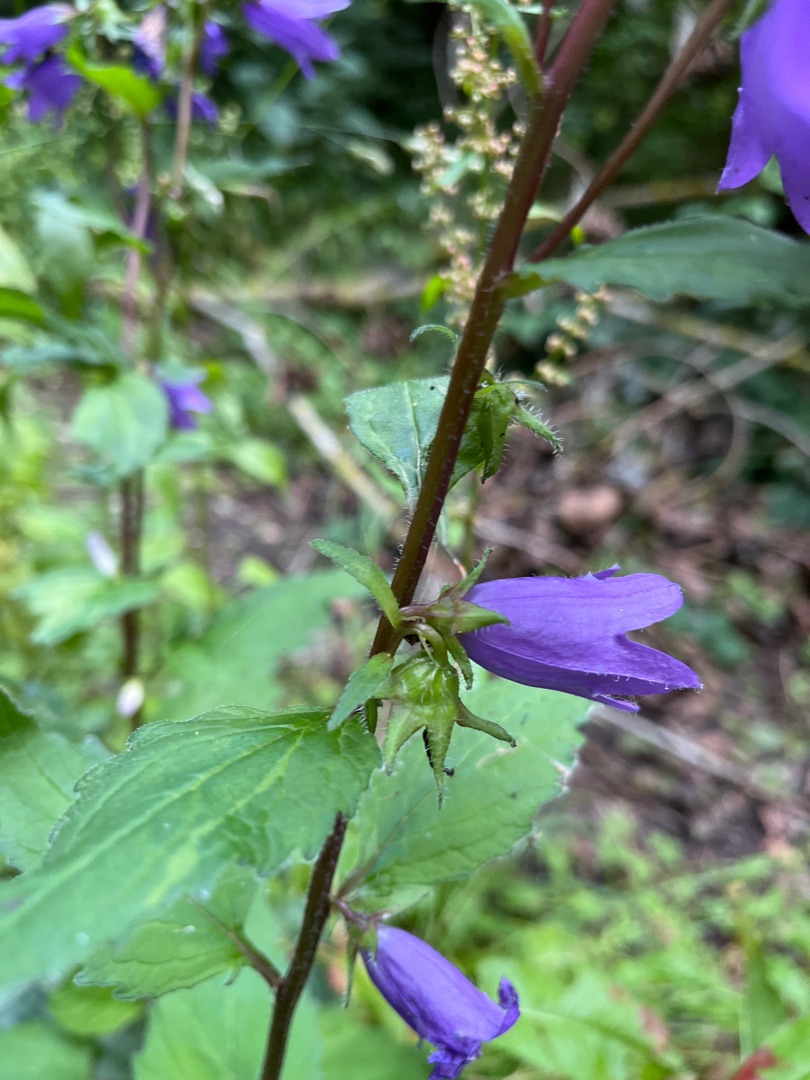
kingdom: Plantae
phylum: Tracheophyta
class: Magnoliopsida
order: Asterales
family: Campanulaceae
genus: Campanula
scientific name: Campanula trachelium
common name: Nælde-klokke
